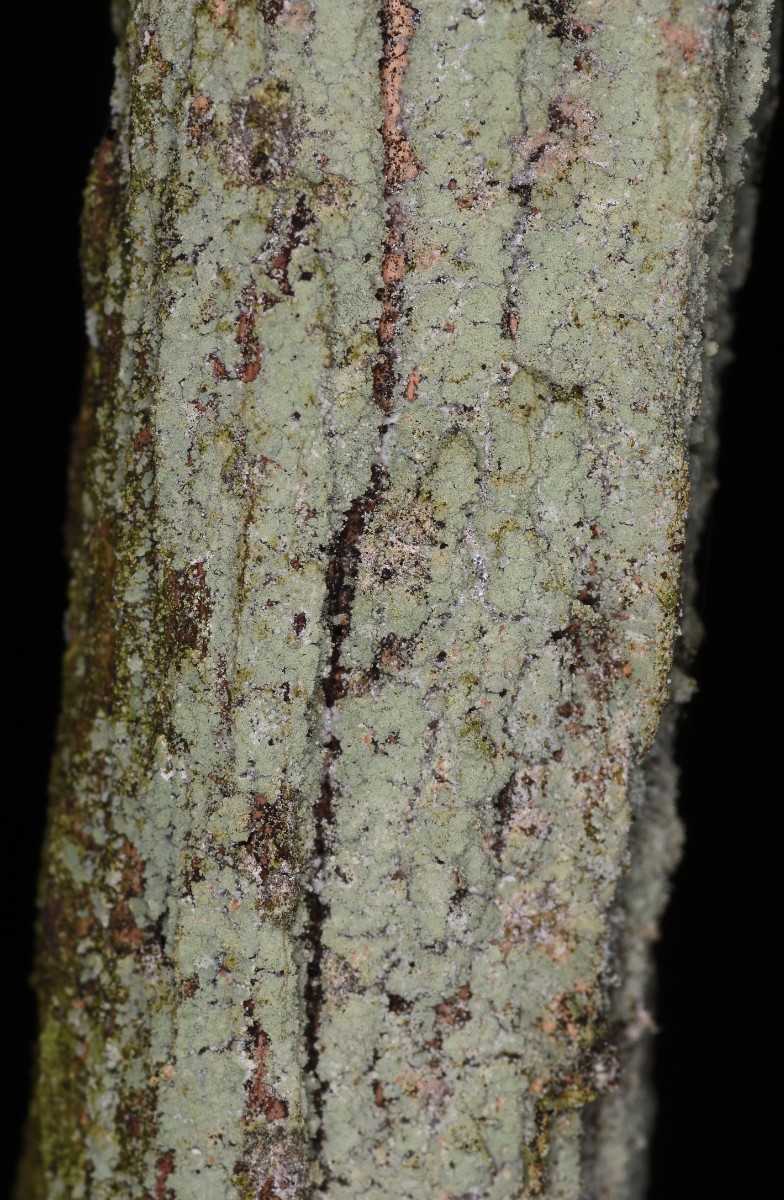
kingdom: Fungi
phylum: Ascomycota
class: Lecanoromycetes
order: Lecanorales
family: Stereocaulaceae
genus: Lepraria
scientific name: Lepraria incana
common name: almindelig støvlav
